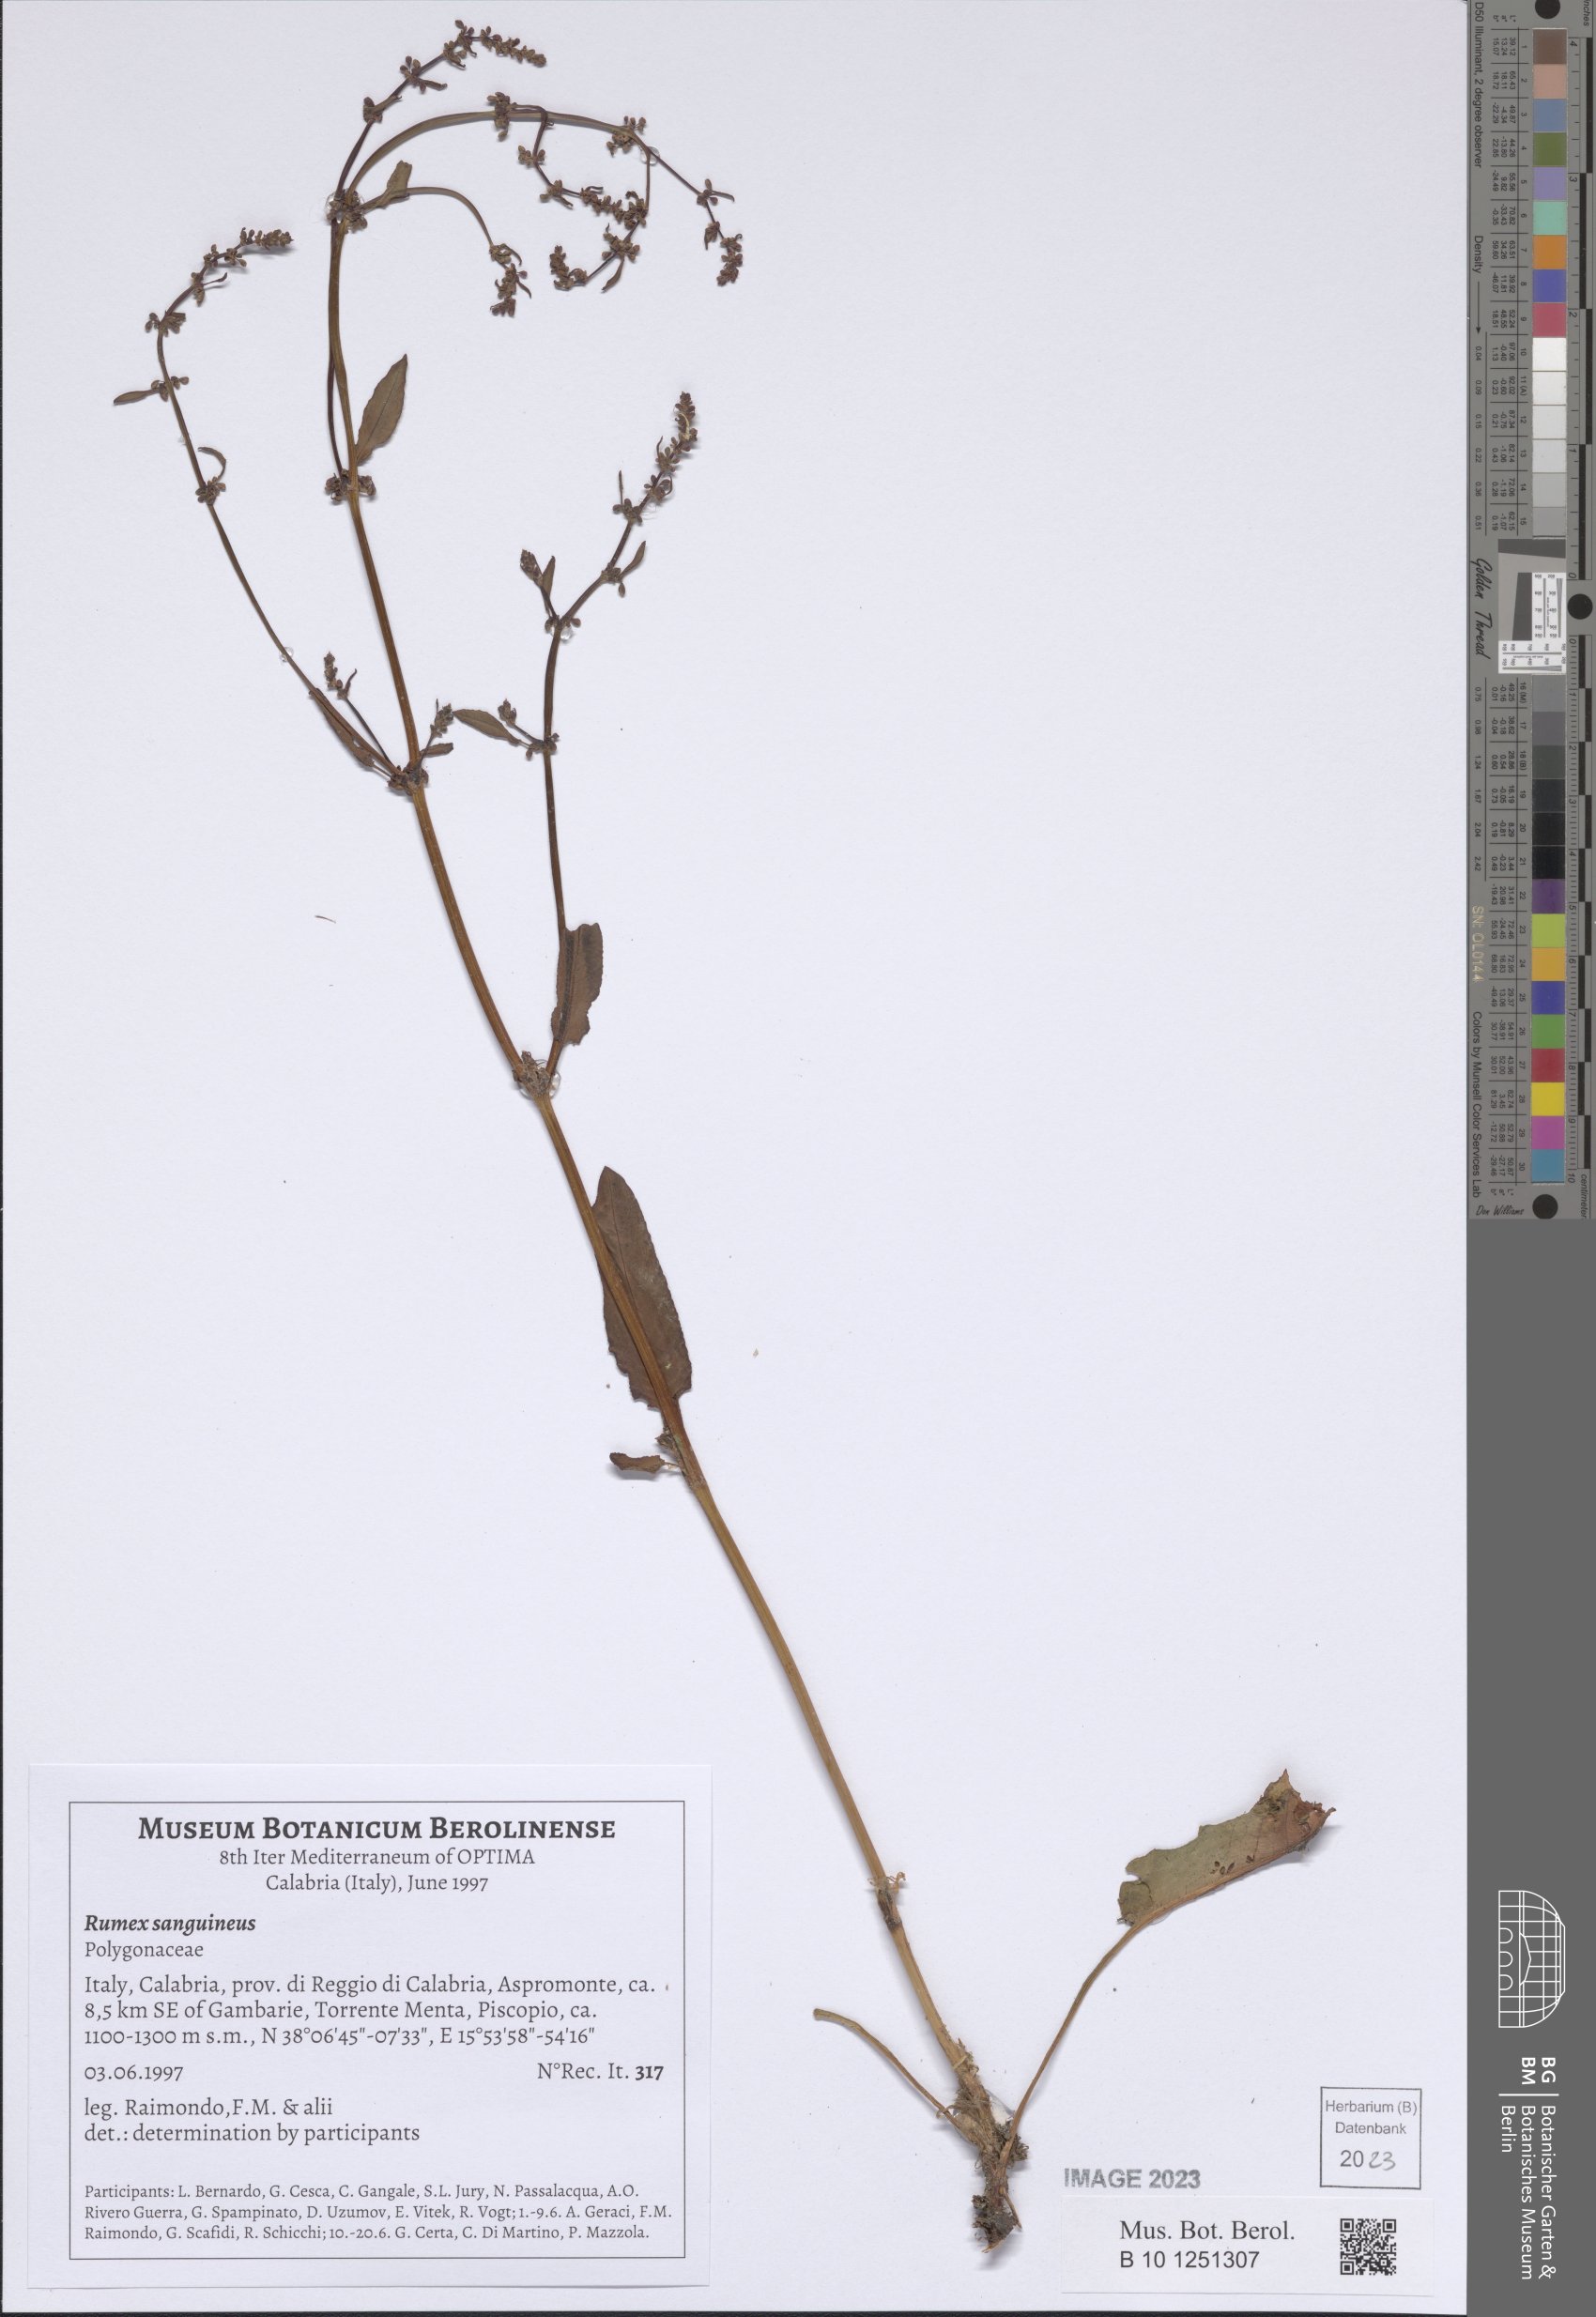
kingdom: Plantae
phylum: Tracheophyta
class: Magnoliopsida
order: Caryophyllales
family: Polygonaceae
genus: Rumex
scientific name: Rumex sanguineus
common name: Wood dock
